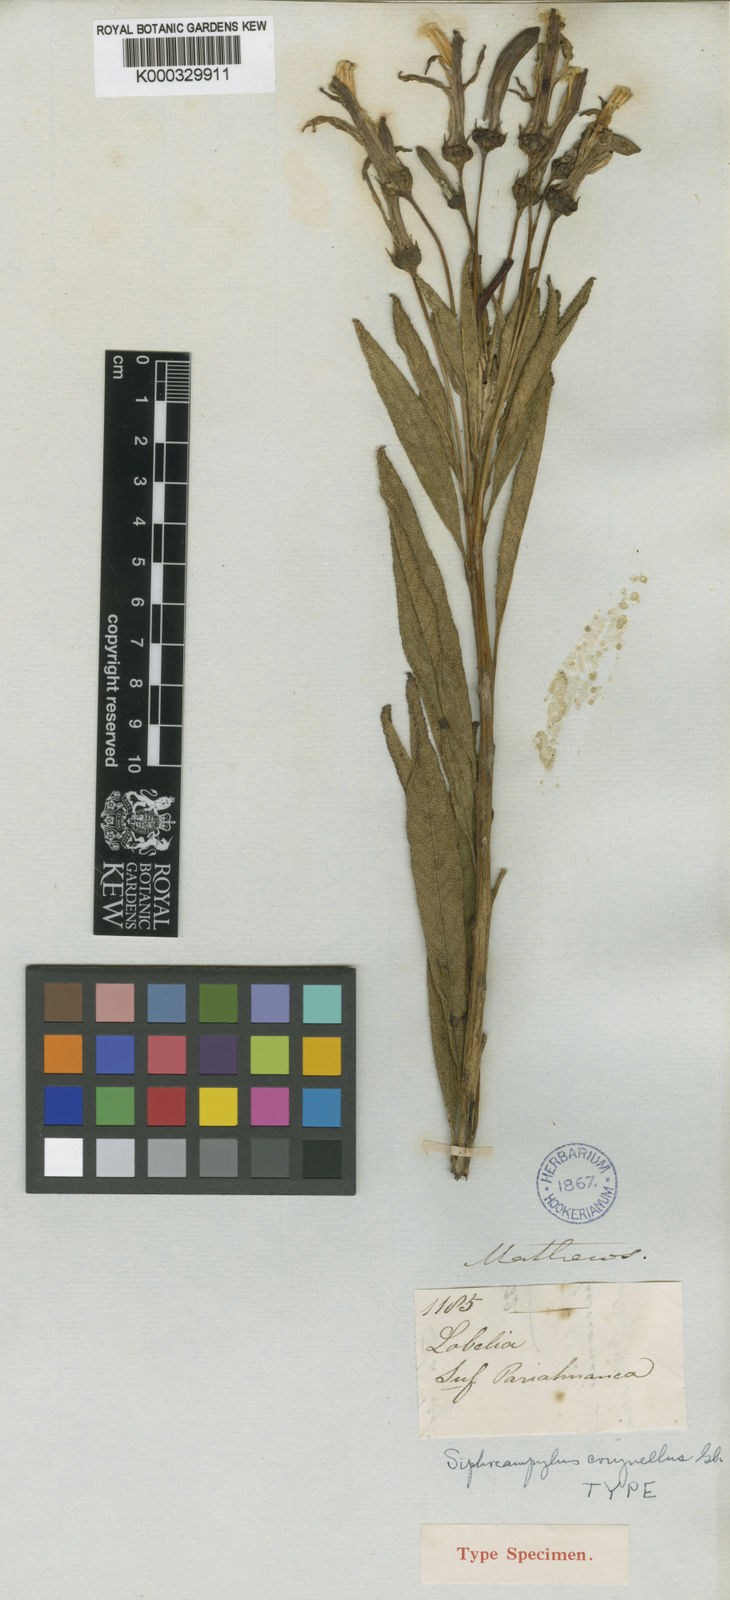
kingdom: Plantae
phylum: Tracheophyta
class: Magnoliopsida
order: Asterales
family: Campanulaceae
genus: Siphocampylus
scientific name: Siphocampylus corynellus
